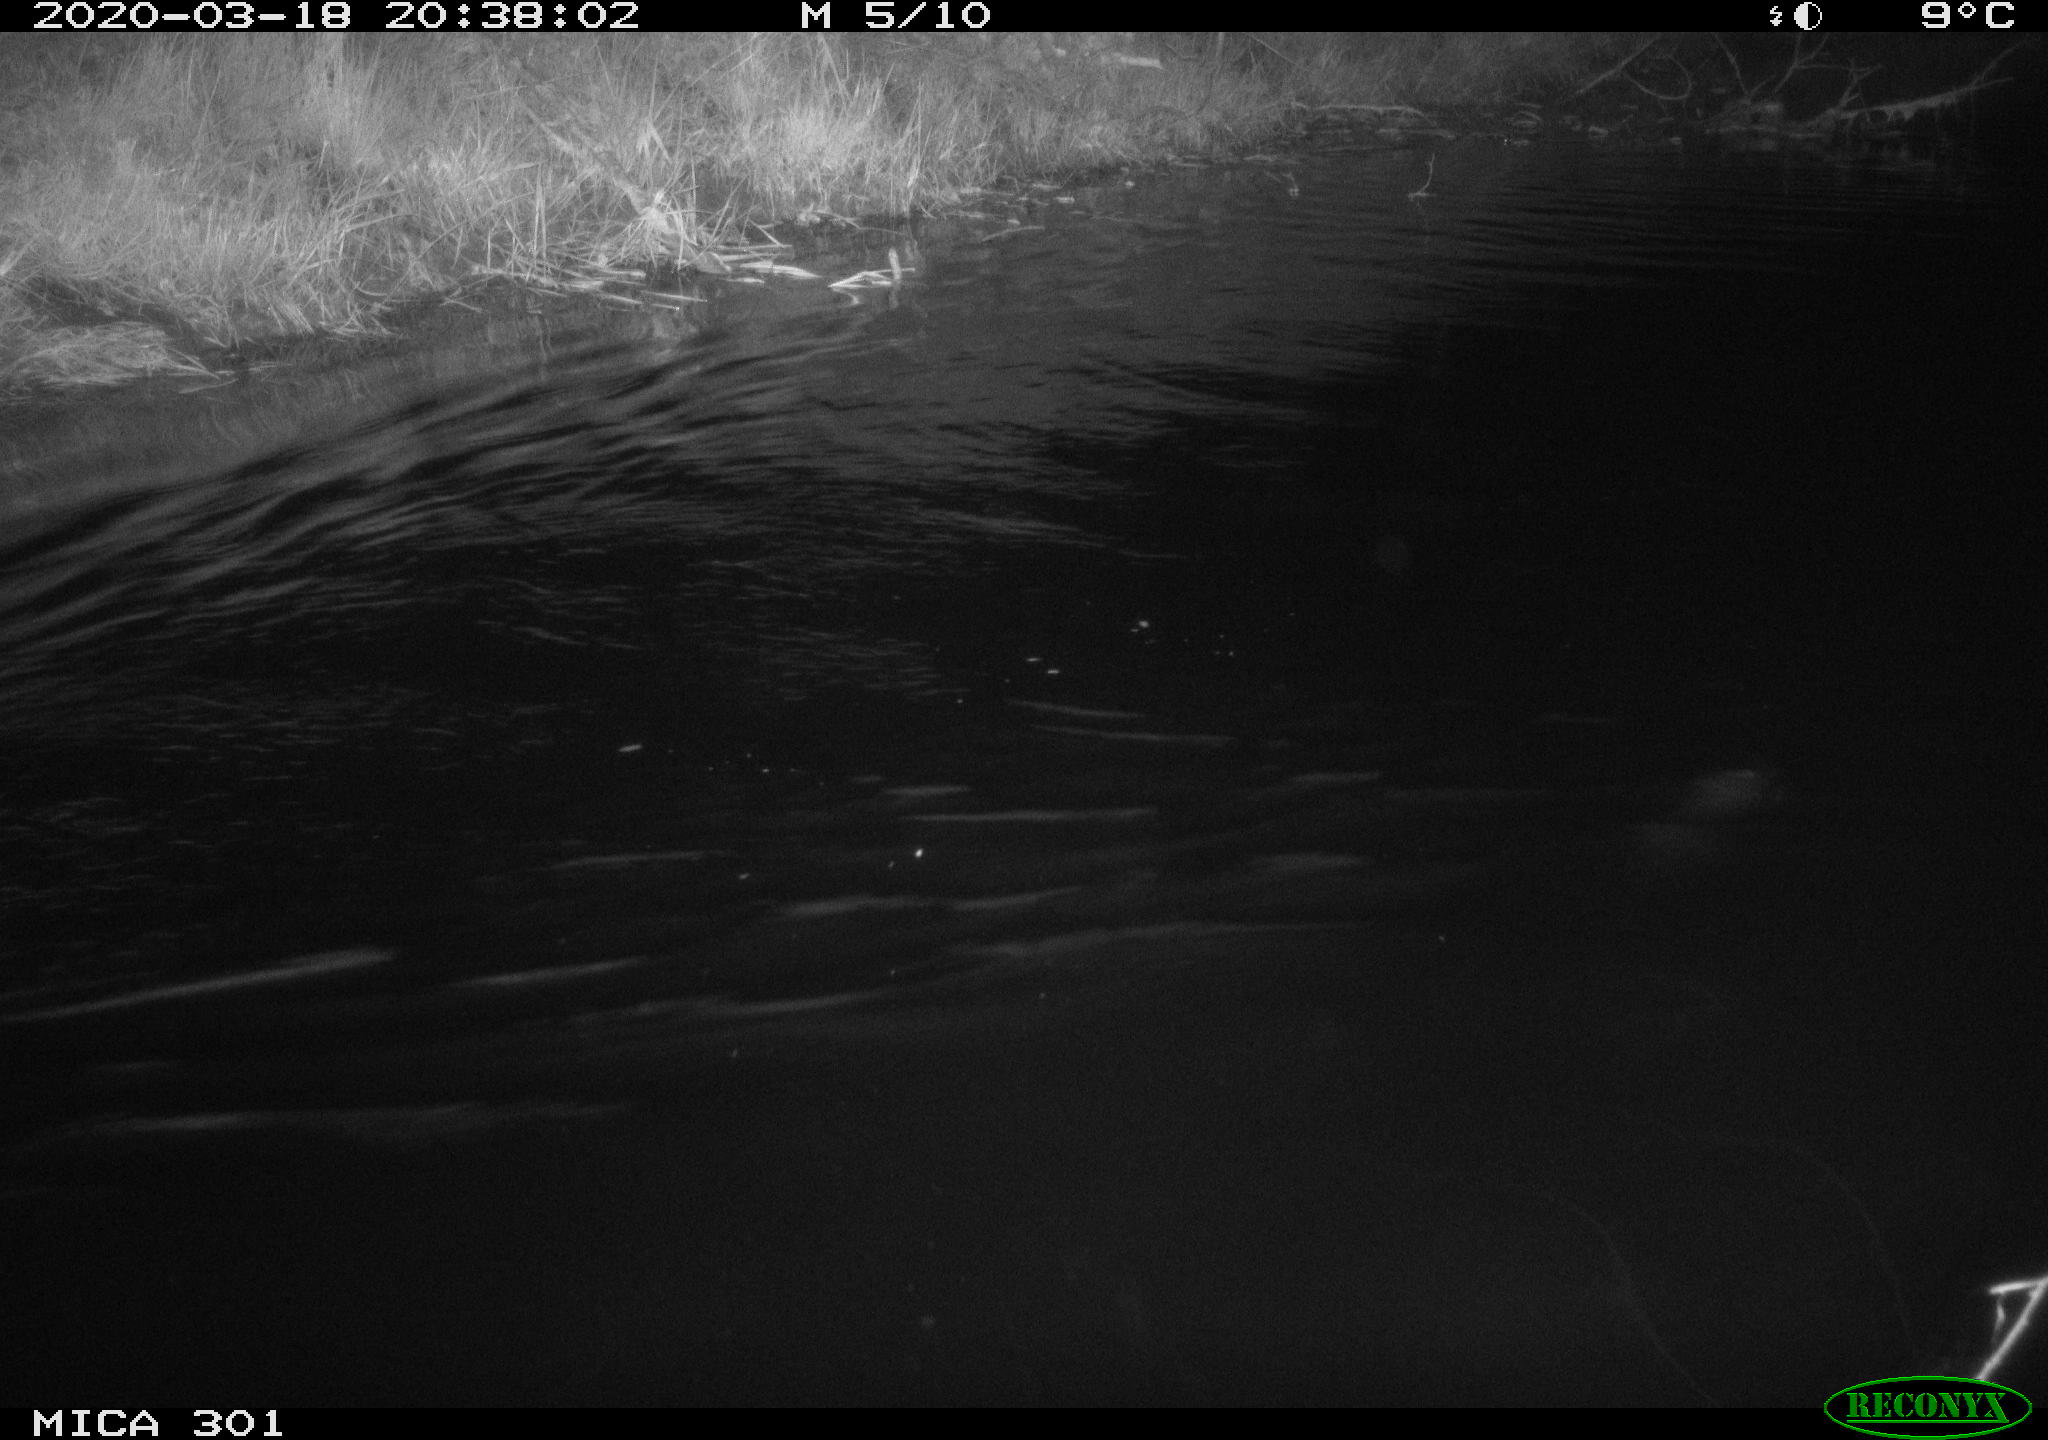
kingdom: Animalia
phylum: Chordata
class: Mammalia
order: Rodentia
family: Castoridae
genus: Castor
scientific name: Castor fiber
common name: Eurasian beaver
